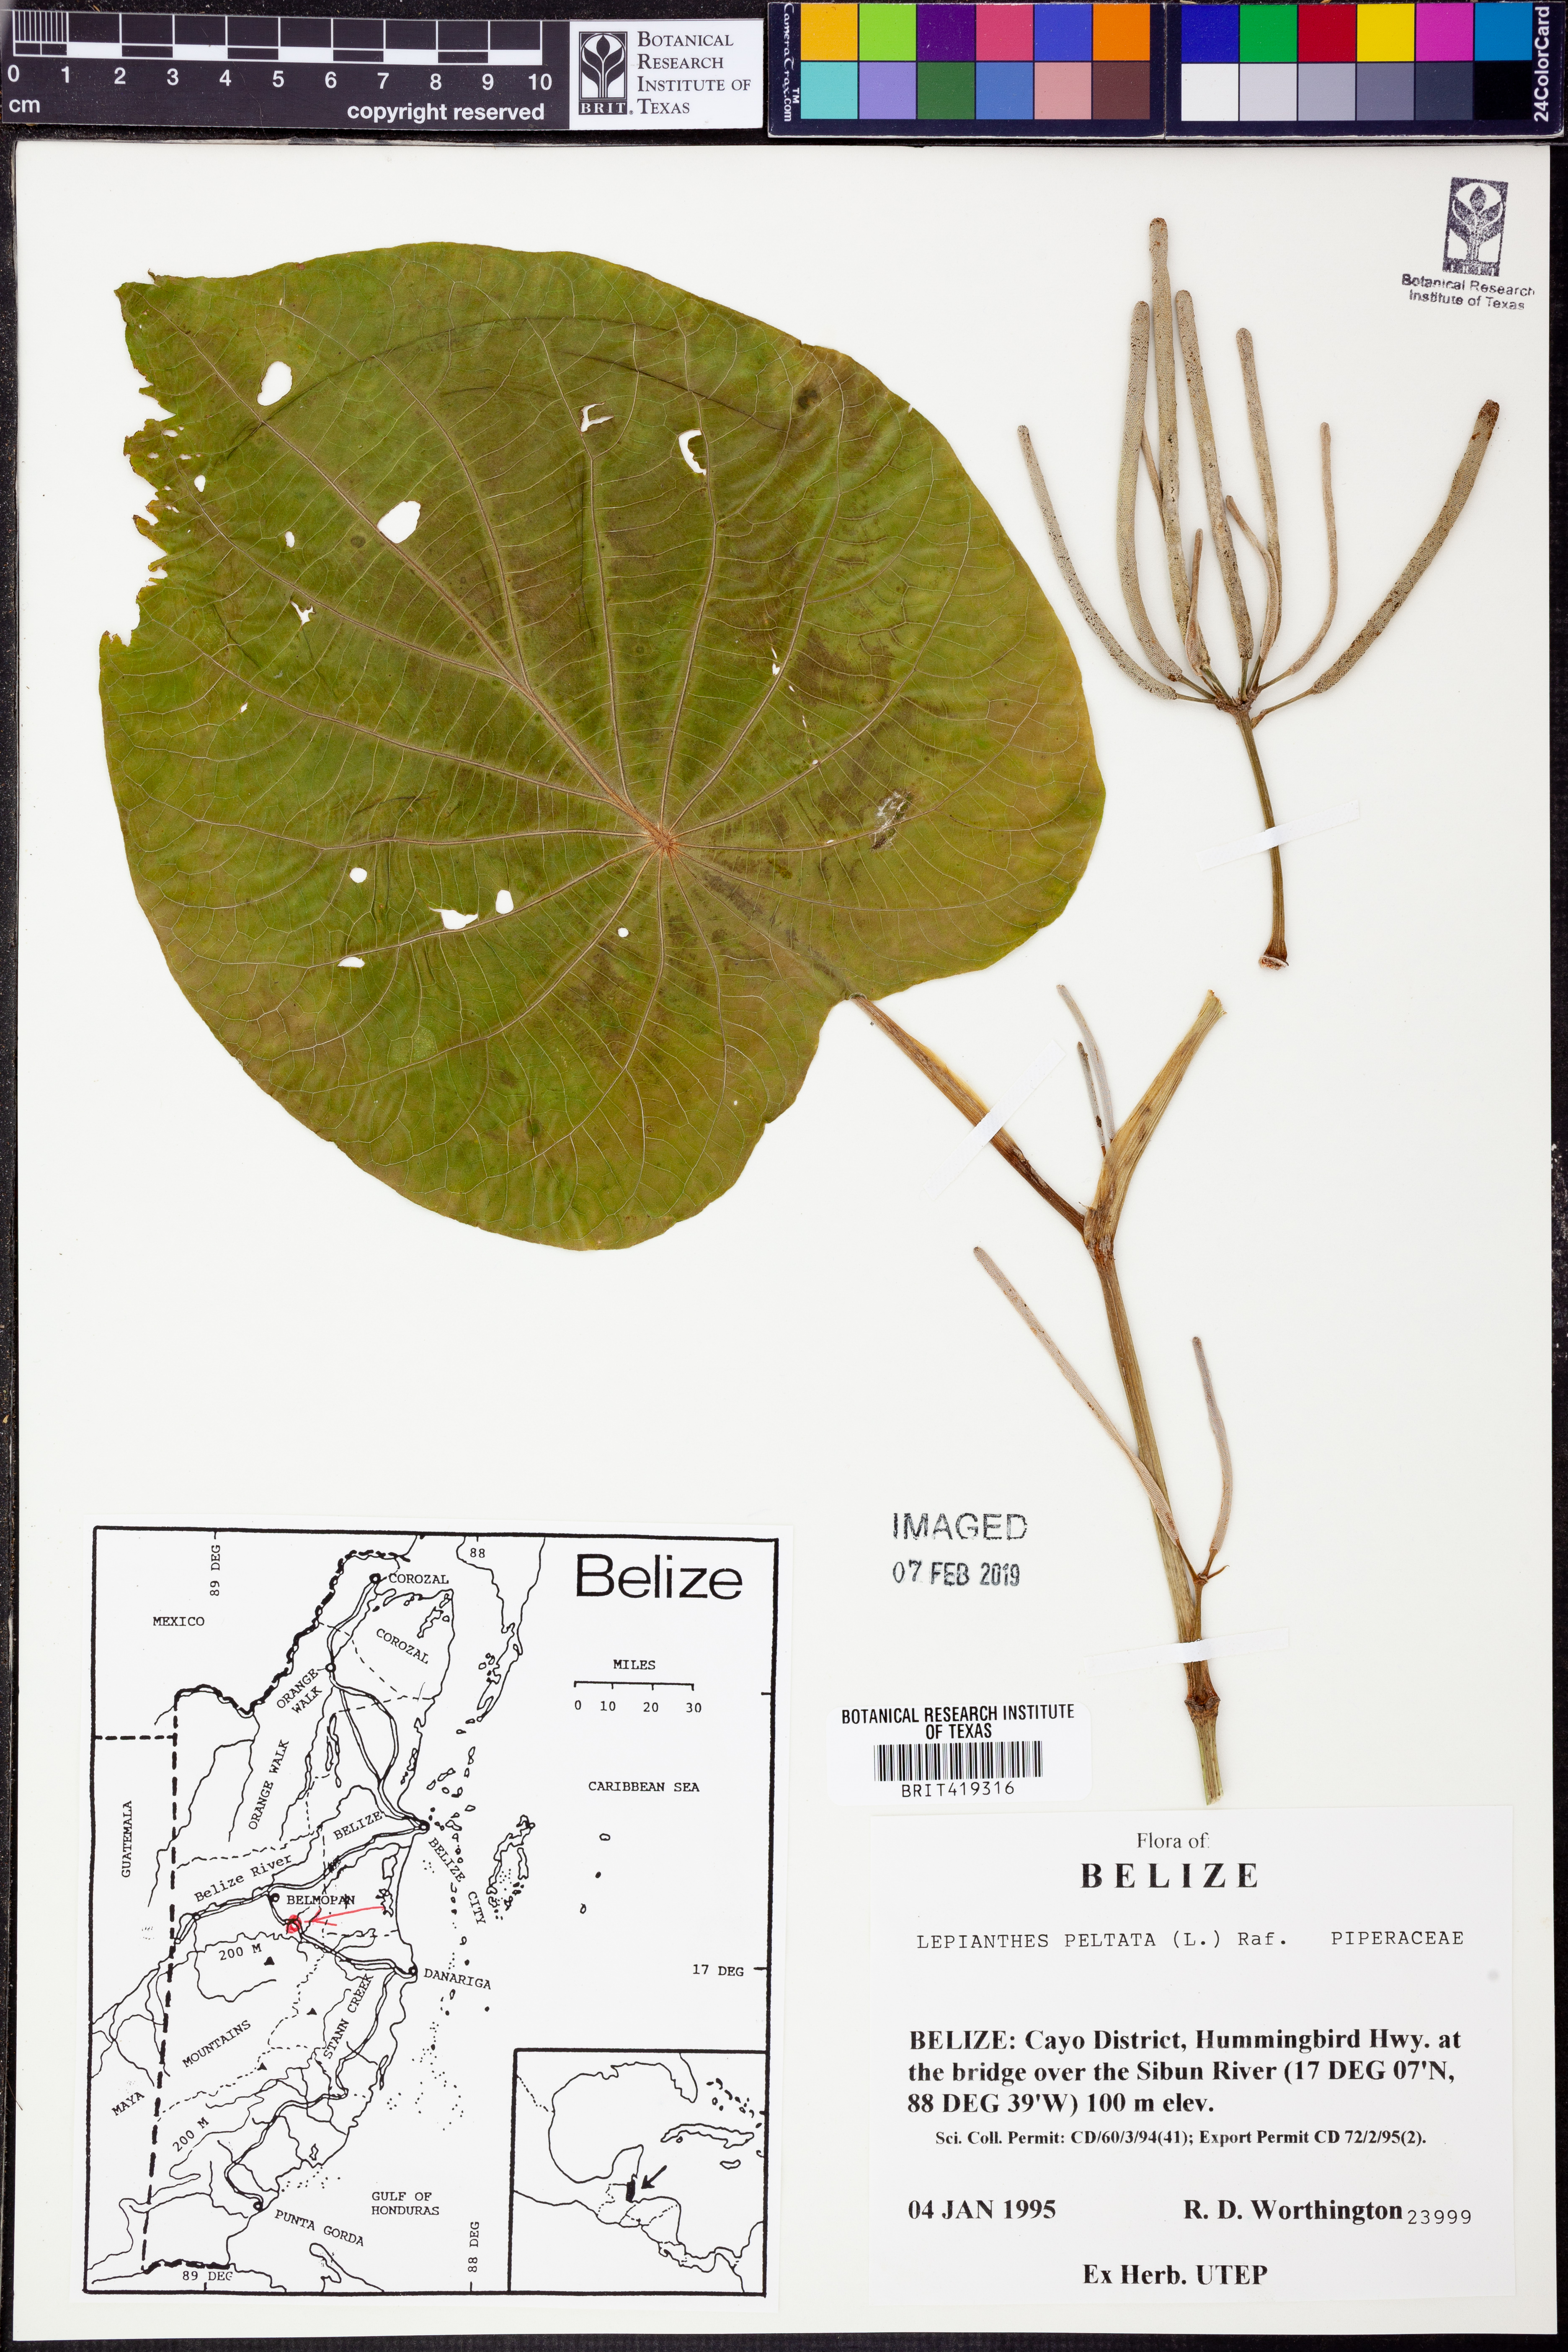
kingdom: Plantae
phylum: Tracheophyta
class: Magnoliopsida
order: Piperales
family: Piperaceae
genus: Piper
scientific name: Piper peltatum
